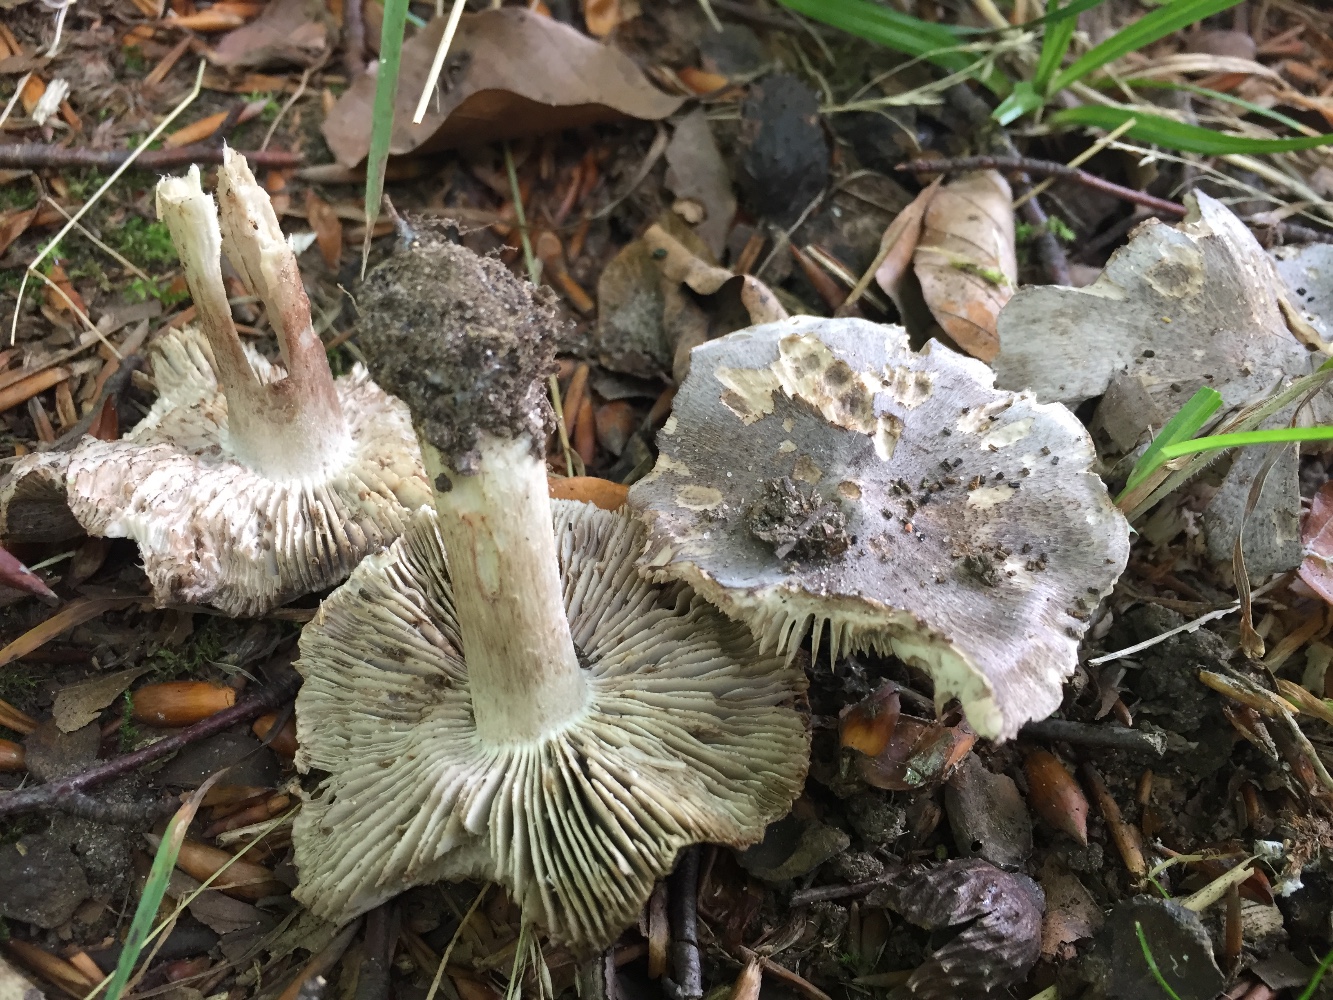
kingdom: Fungi
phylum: Basidiomycota
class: Agaricomycetes
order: Agaricales
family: Tricholomataceae
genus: Tricholoma
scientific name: Tricholoma sciodes
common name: stribet ridderhat
